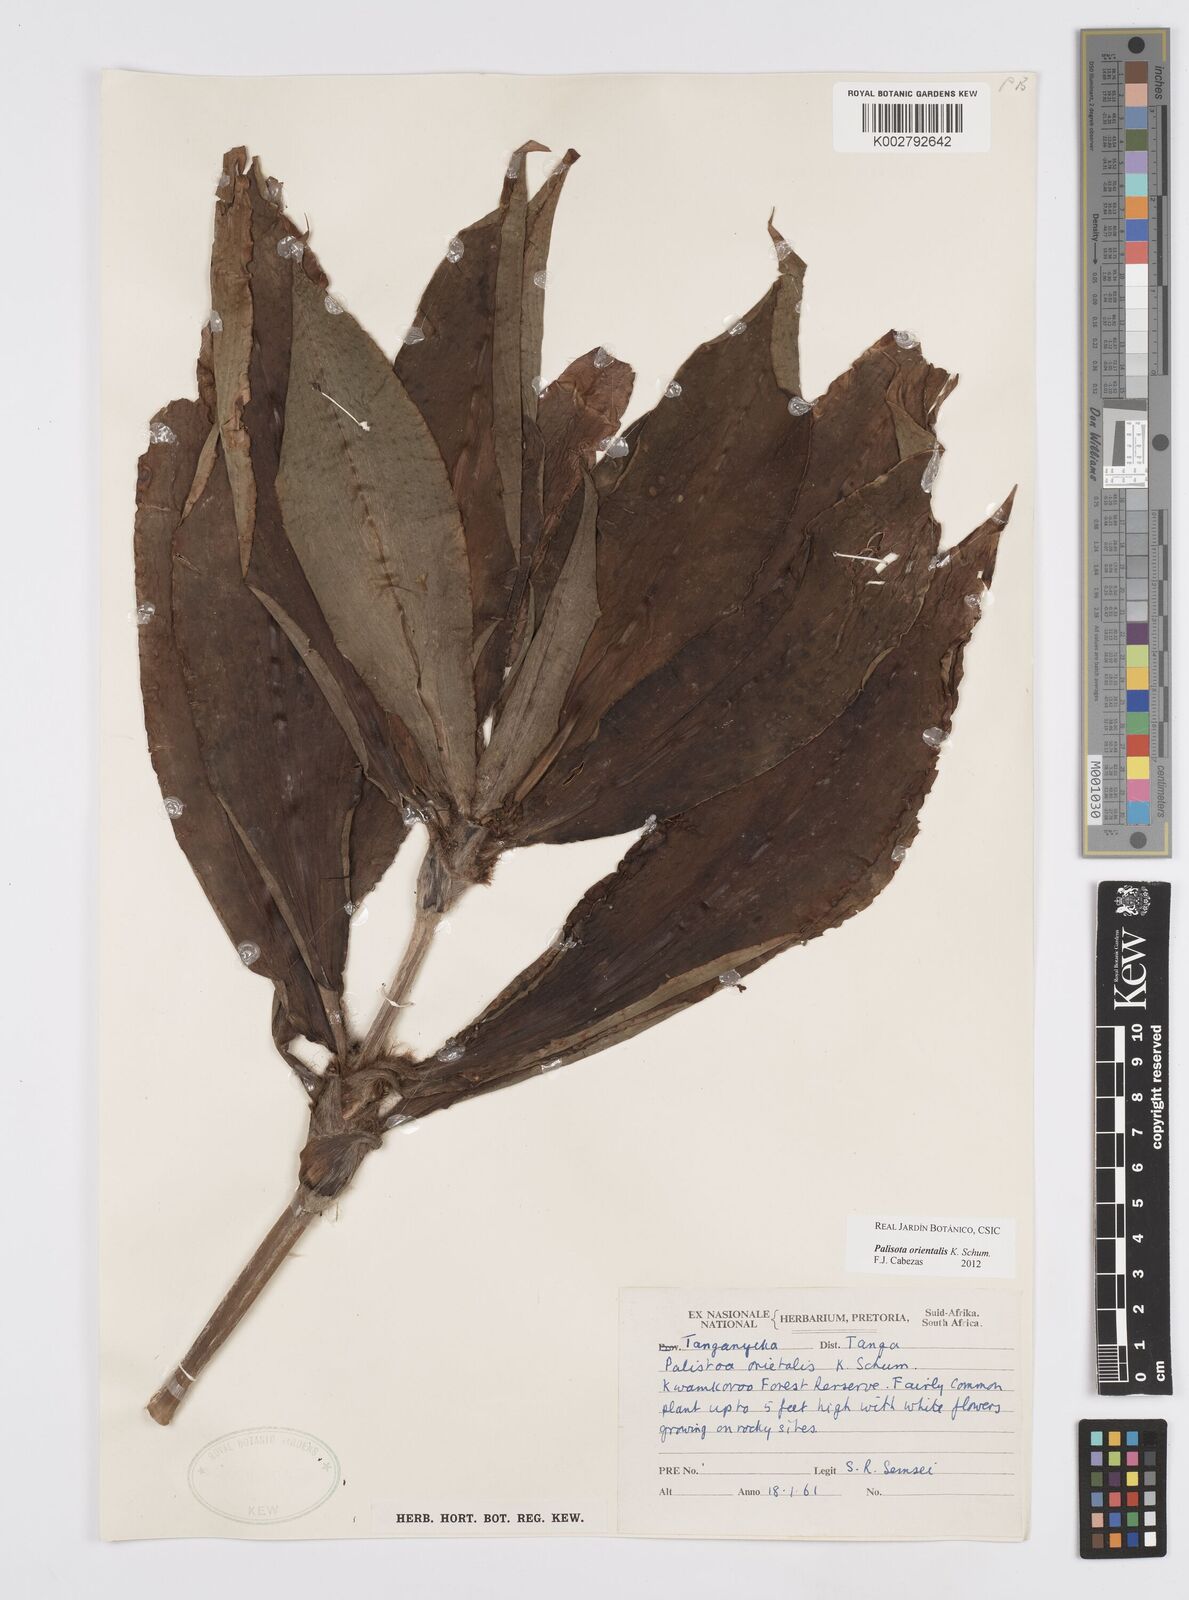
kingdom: Plantae
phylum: Tracheophyta
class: Liliopsida
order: Commelinales
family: Commelinaceae
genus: Palisota
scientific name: Palisota orientalis
